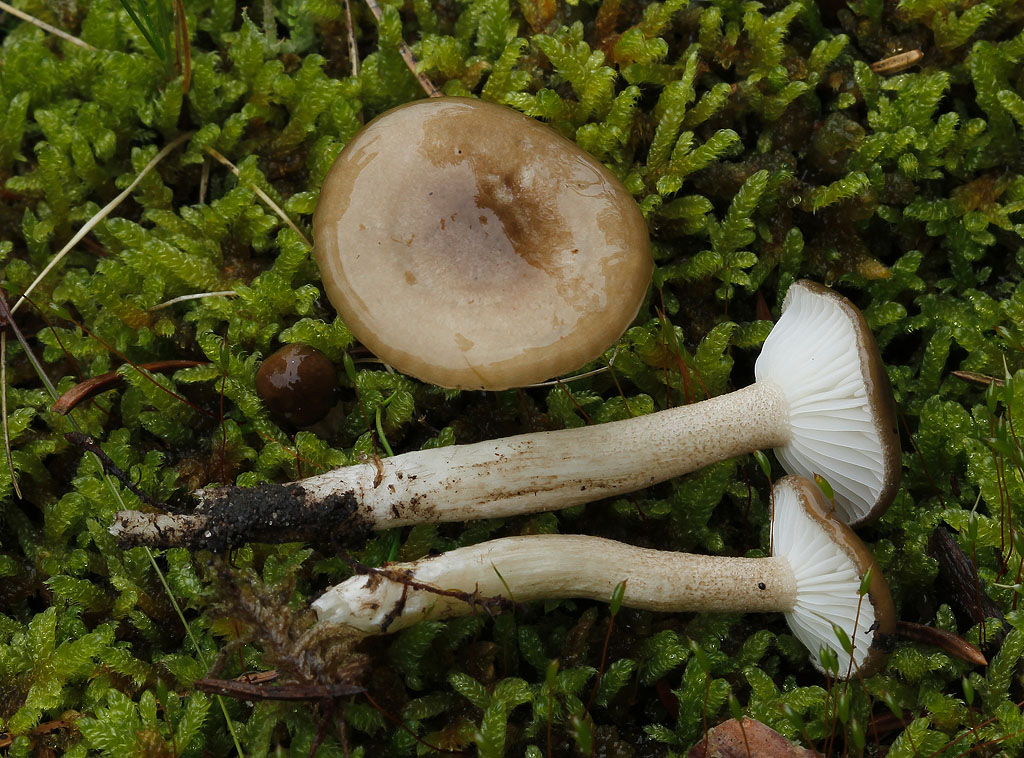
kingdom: Fungi
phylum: Basidiomycota
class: Agaricomycetes
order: Agaricales
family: Hygrophoraceae
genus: Hygrophorus
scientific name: Hygrophorus pustulatus
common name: mørkprikket sneglehat
